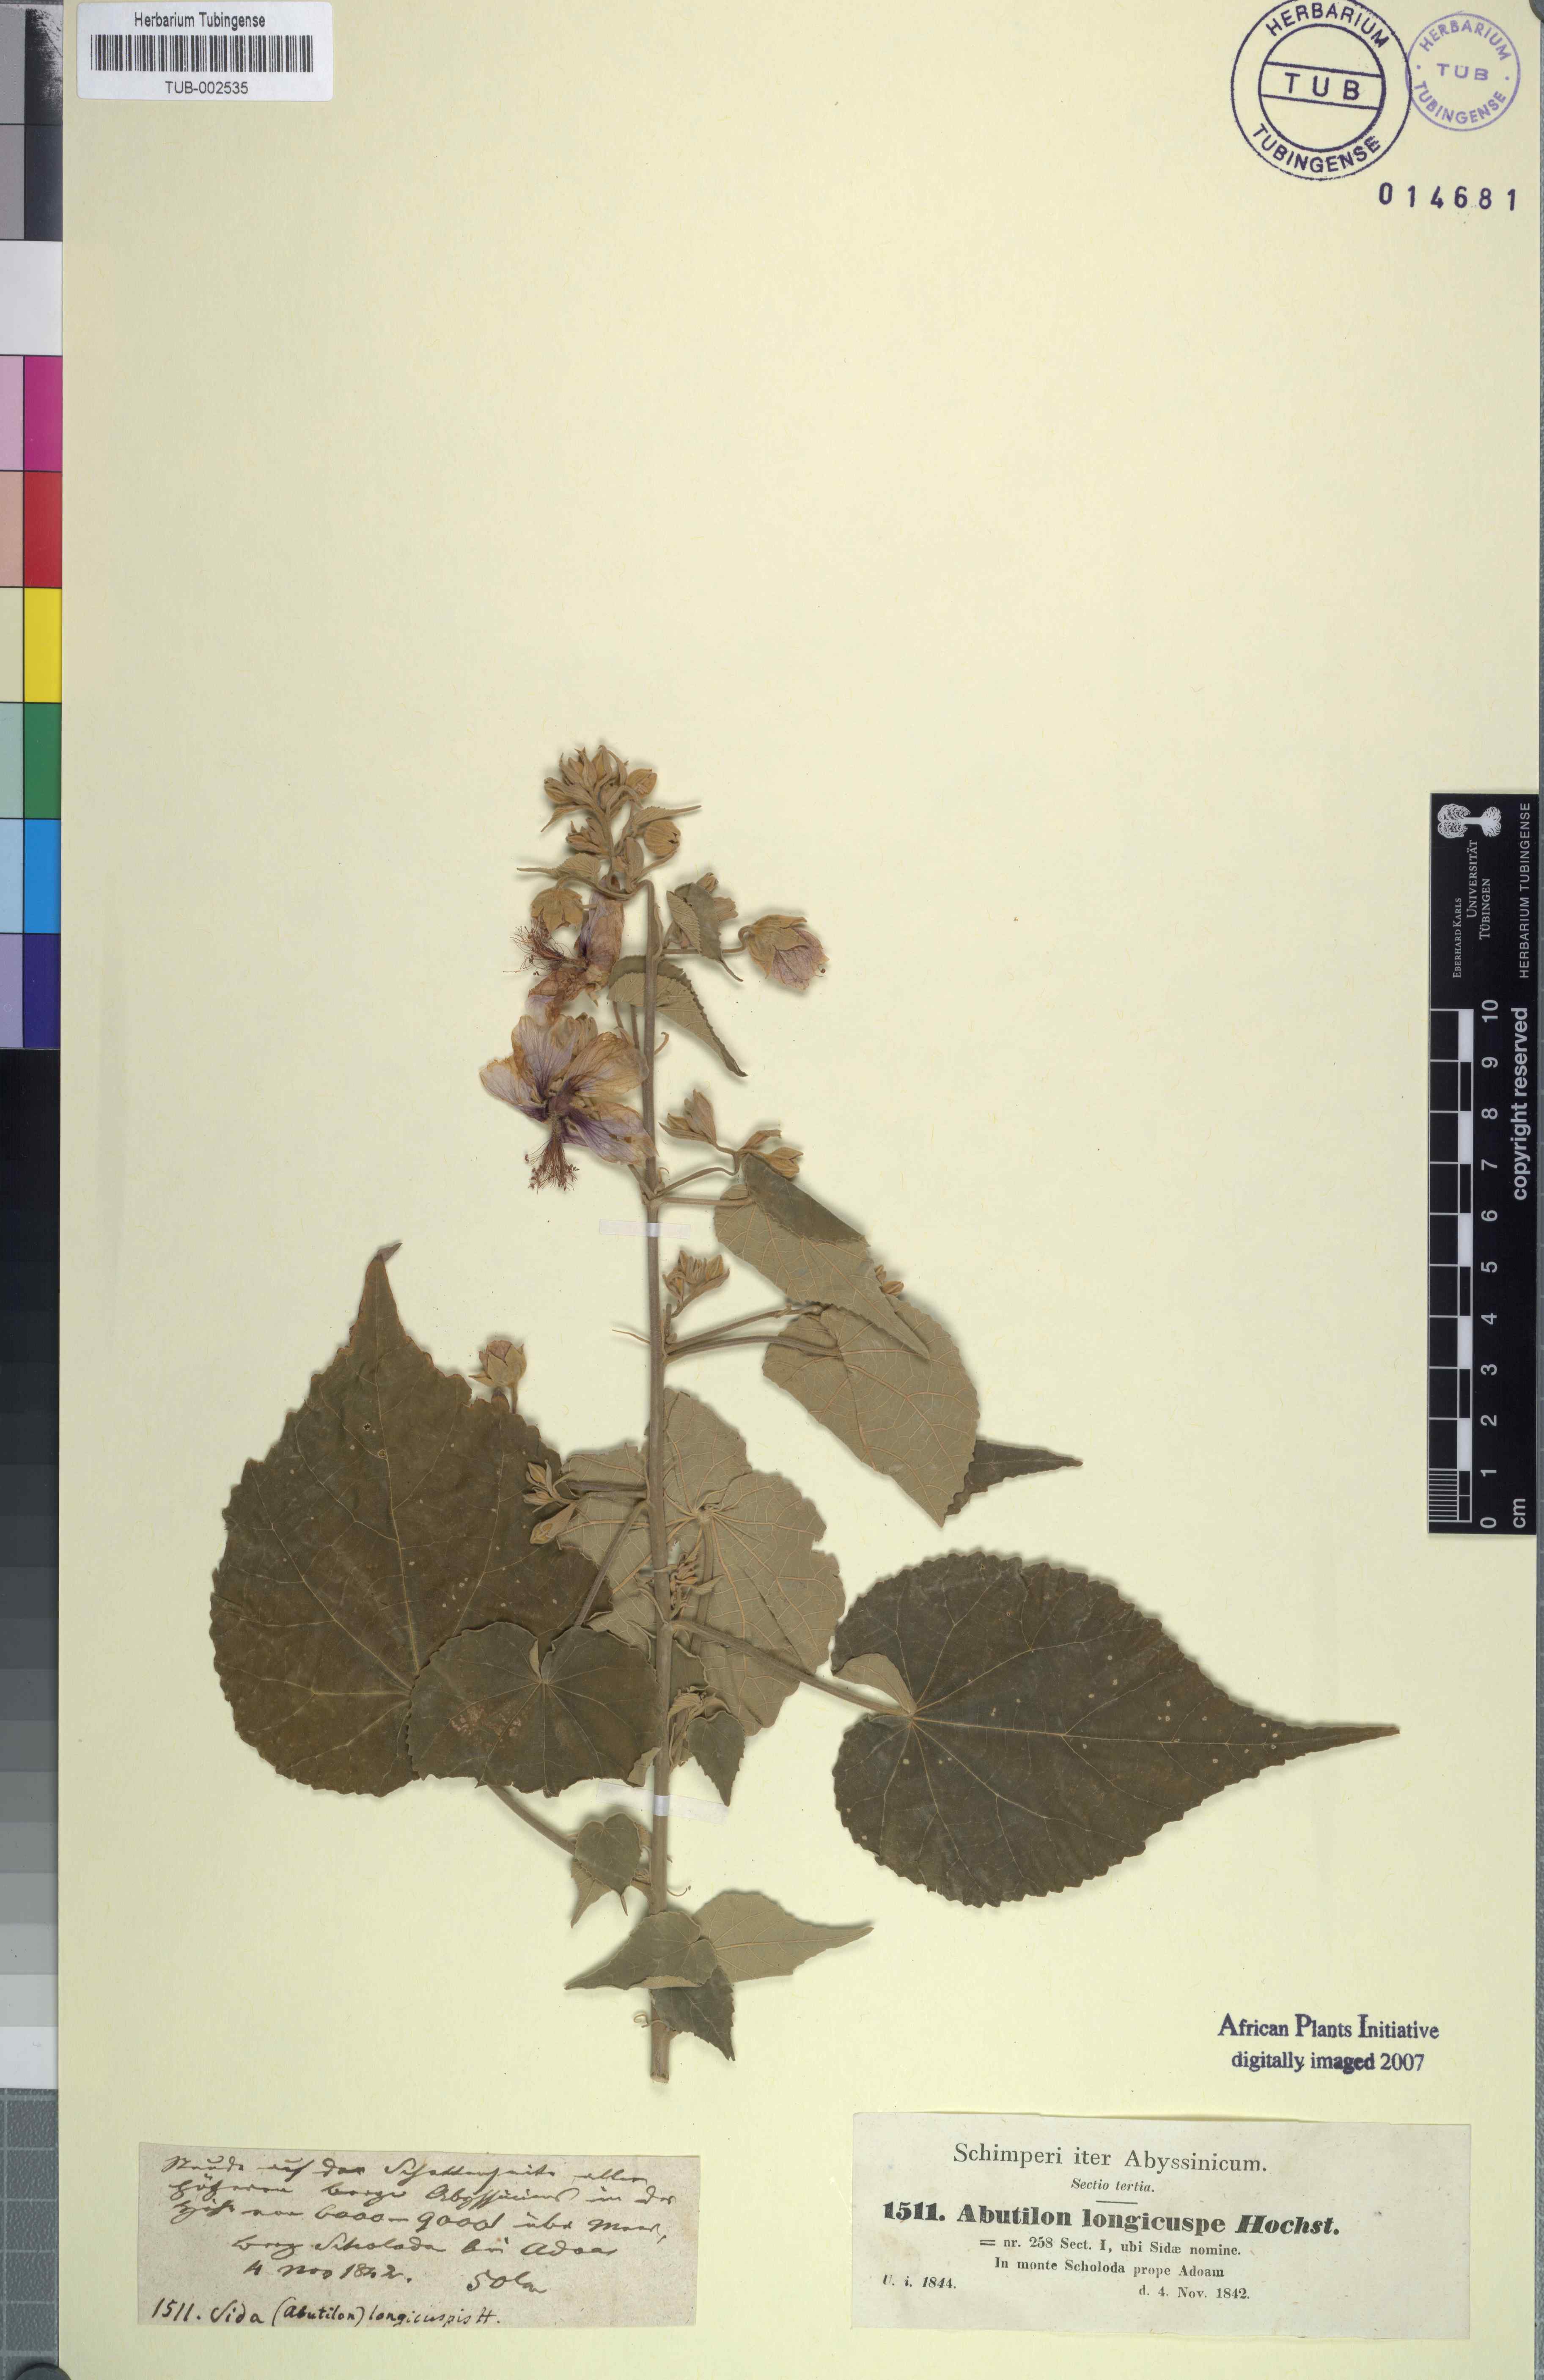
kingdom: Plantae
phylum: Tracheophyta
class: Magnoliopsida
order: Malvales
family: Malvaceae
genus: Abutilon
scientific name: Abutilon longicuspe
